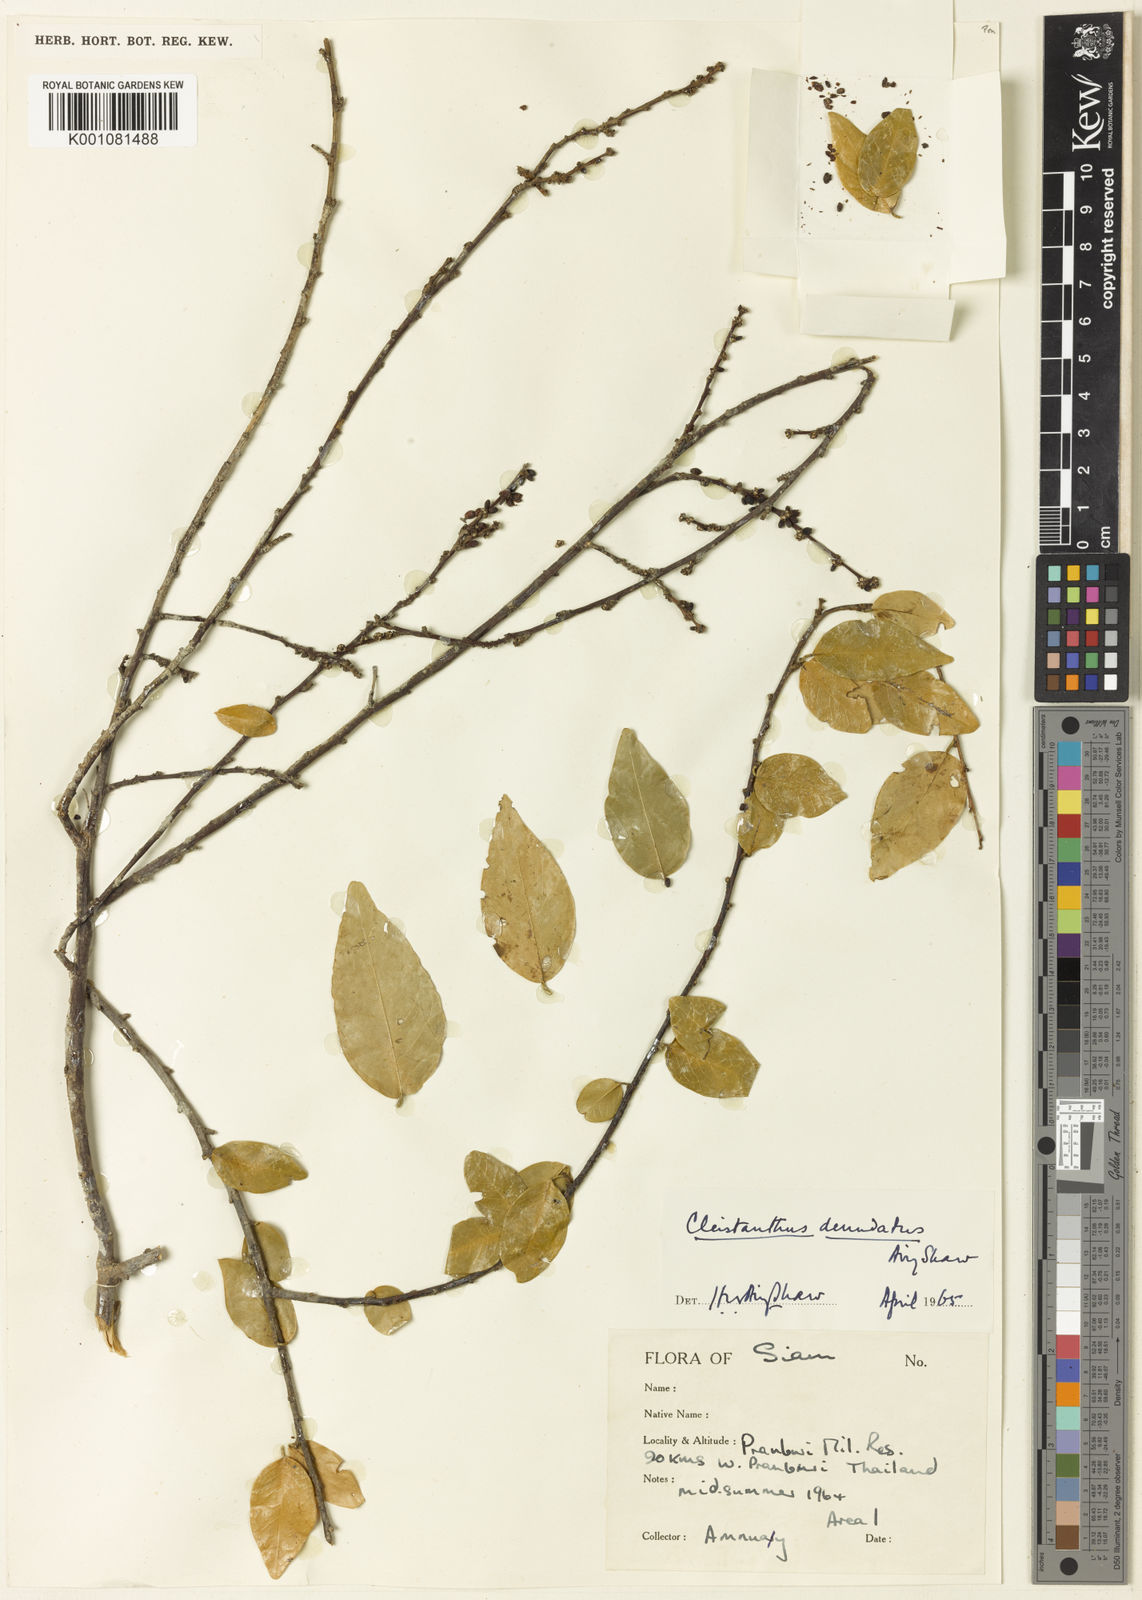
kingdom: Plantae
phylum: Tracheophyta
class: Magnoliopsida
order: Malpighiales
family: Phyllanthaceae
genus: Cleistanthus
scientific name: Cleistanthus denudatus
